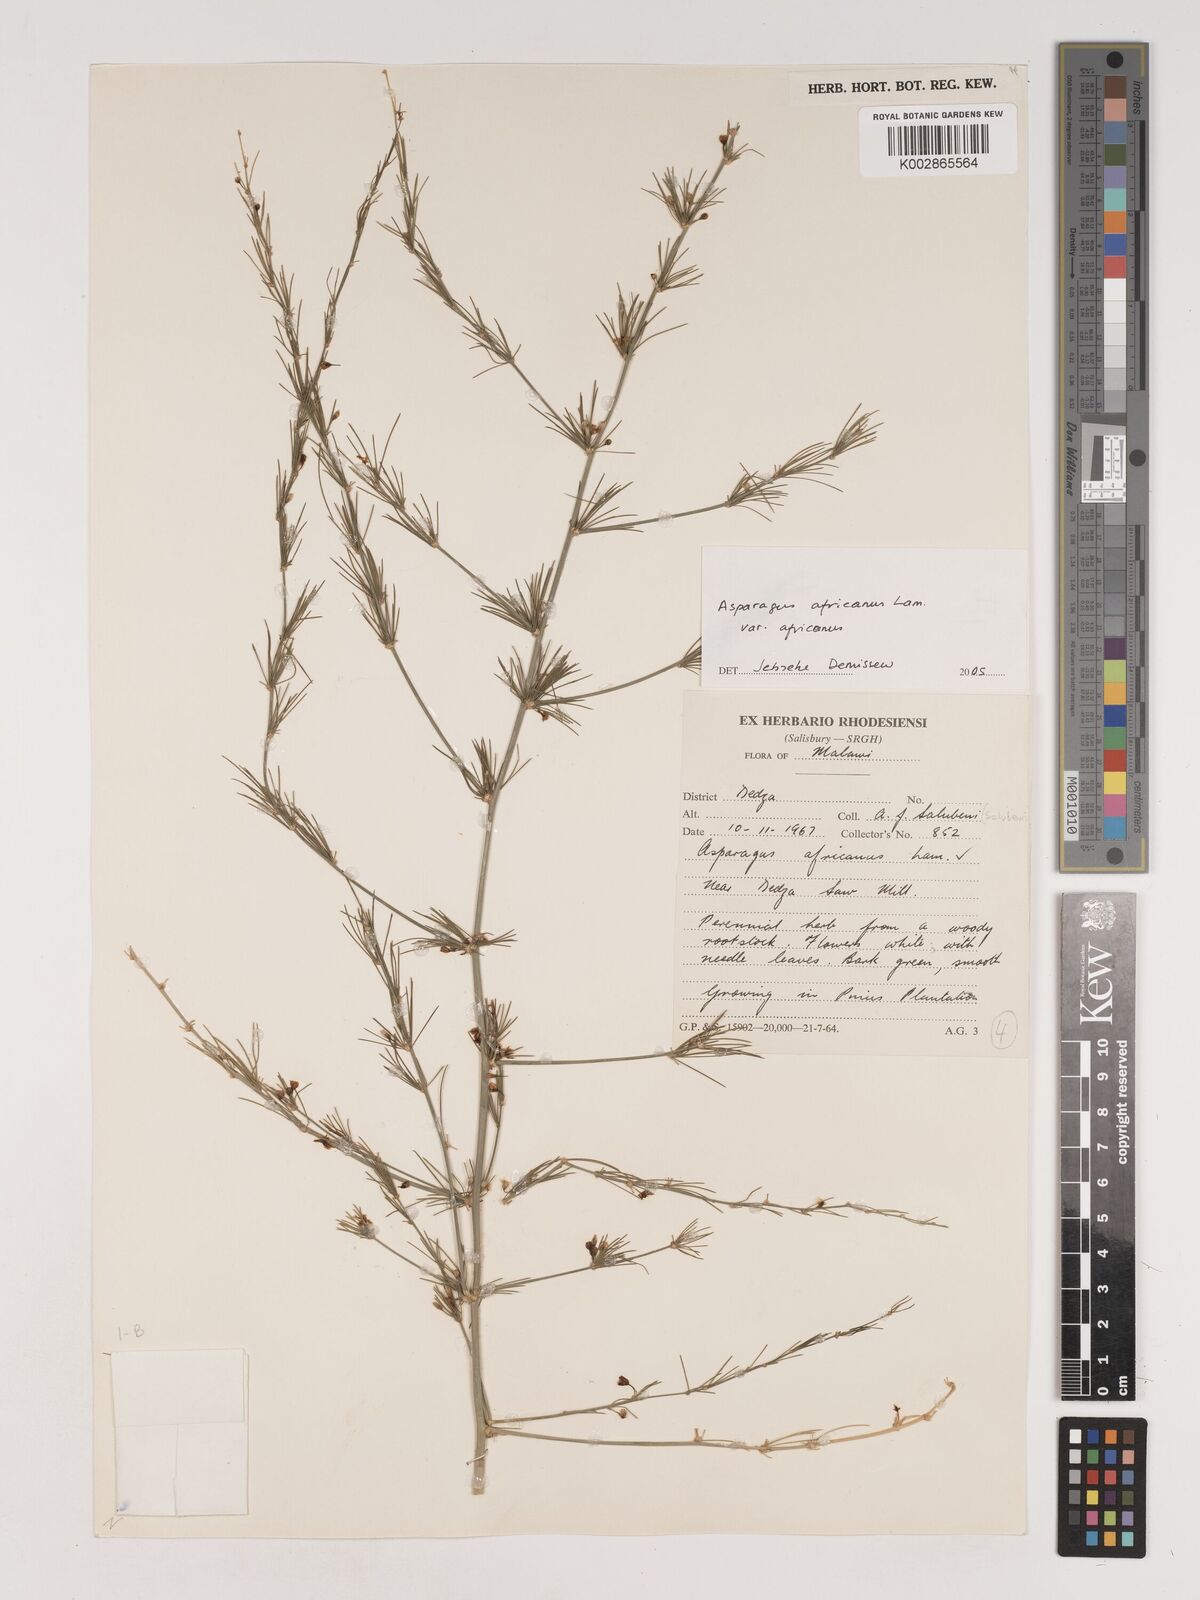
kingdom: Plantae
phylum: Tracheophyta
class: Liliopsida
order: Asparagales
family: Asparagaceae
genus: Asparagus
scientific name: Asparagus africanus
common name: Asparagus-fern
